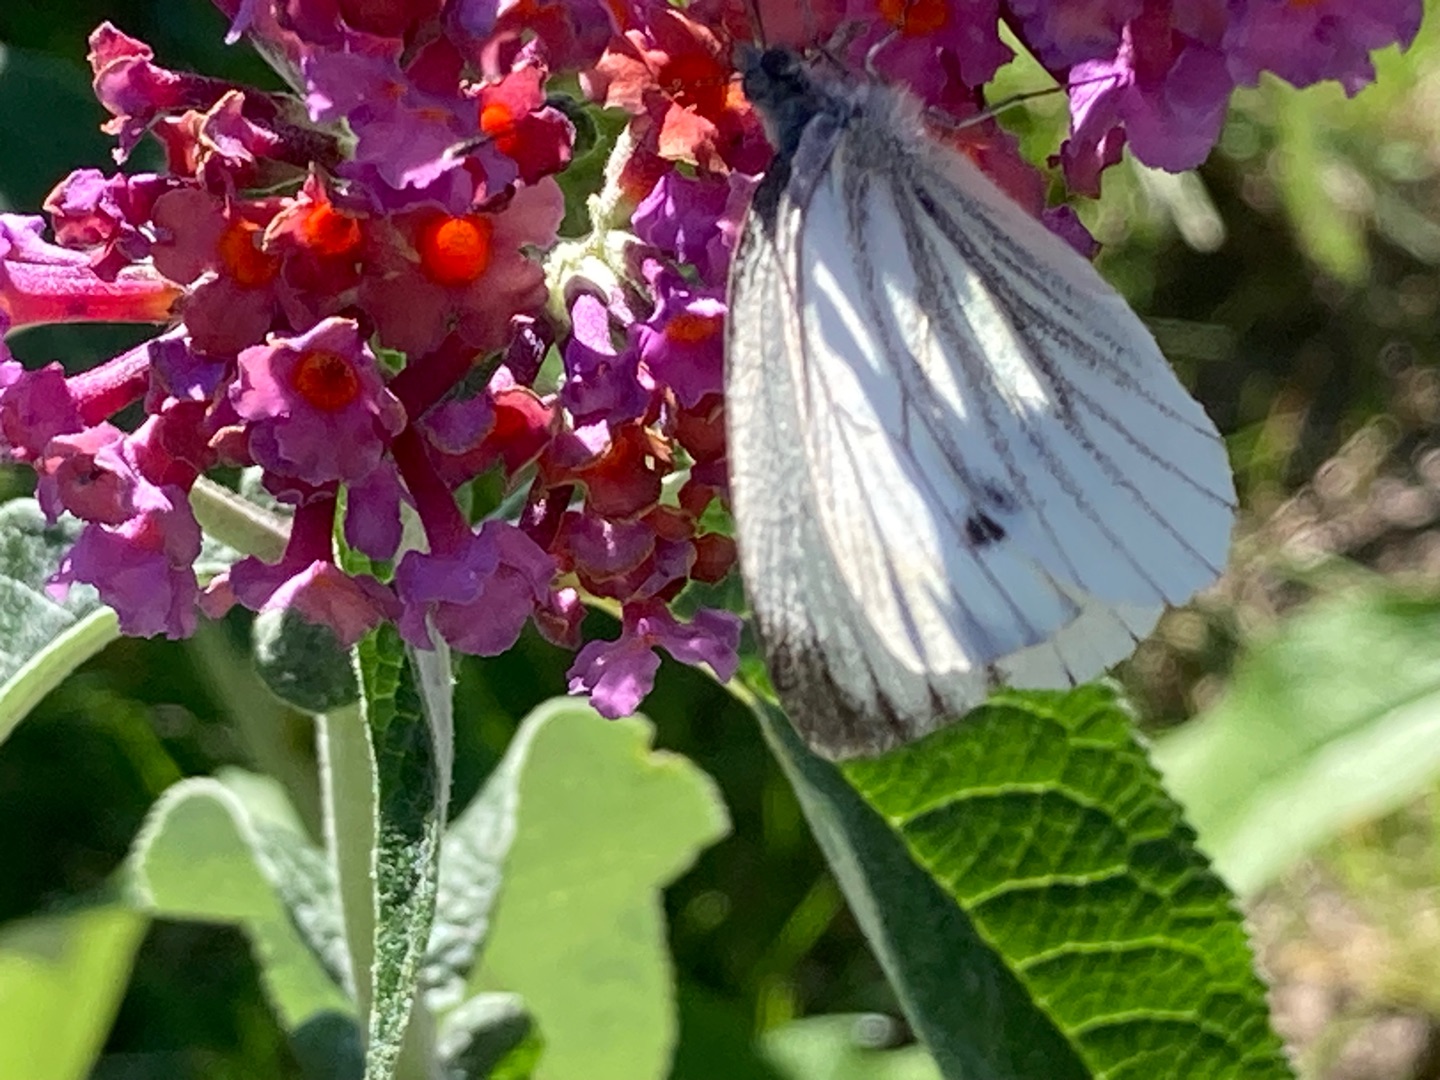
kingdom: Animalia
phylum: Arthropoda
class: Insecta
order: Lepidoptera
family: Pieridae
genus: Pieris
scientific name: Pieris napi
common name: Grønåret kålsommerfugl
